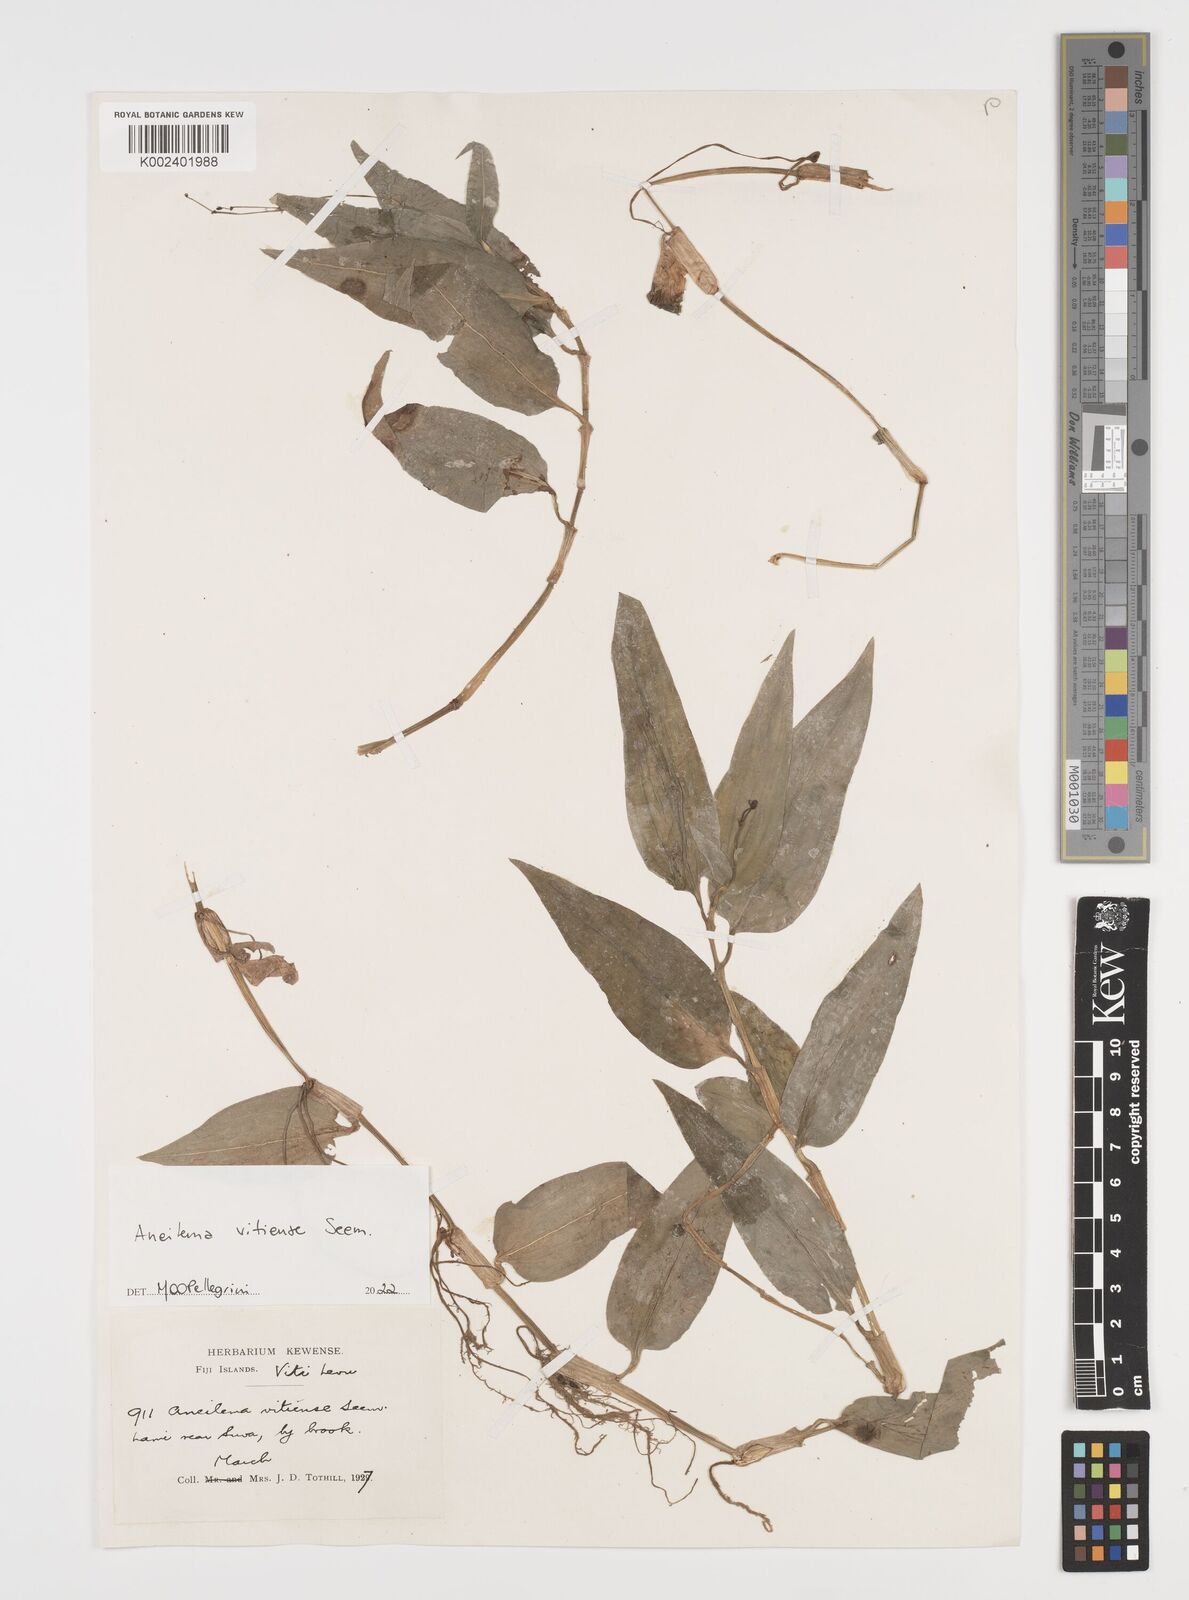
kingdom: Plantae
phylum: Tracheophyta
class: Liliopsida
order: Commelinales
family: Commelinaceae
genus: Rhopalephora
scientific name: Rhopalephora vitiensis
